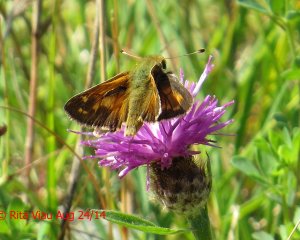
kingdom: Animalia
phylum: Arthropoda
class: Insecta
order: Lepidoptera
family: Hesperiidae
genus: Hesperia
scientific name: Hesperia comma
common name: Common Branded Skipper
